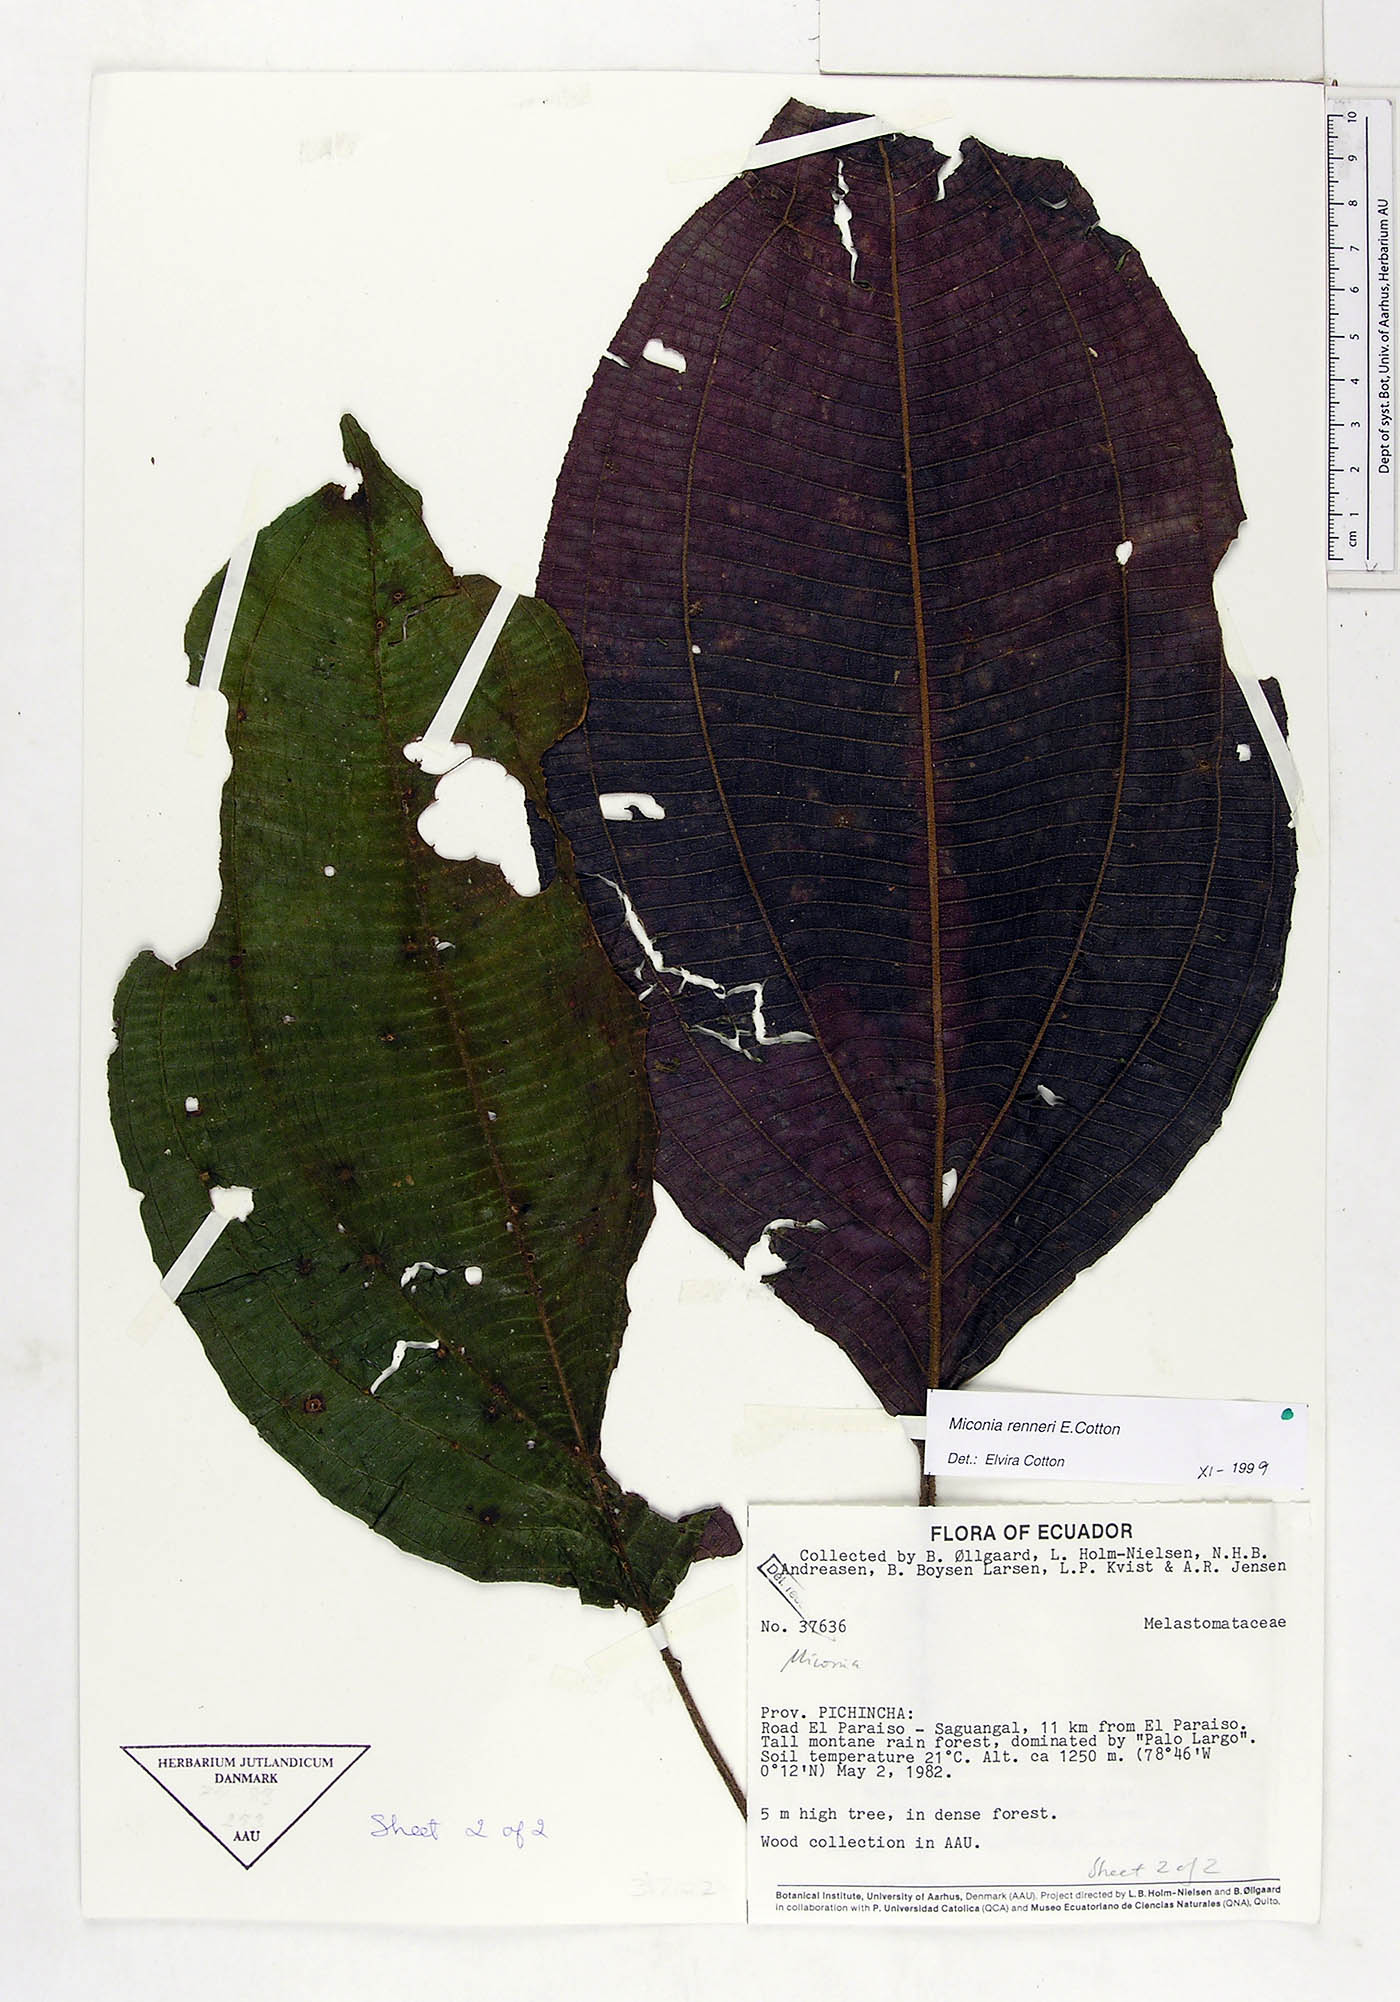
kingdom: Plantae
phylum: Tracheophyta
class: Magnoliopsida
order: Myrtales
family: Melastomataceae
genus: Miconia
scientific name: Miconia renneri
